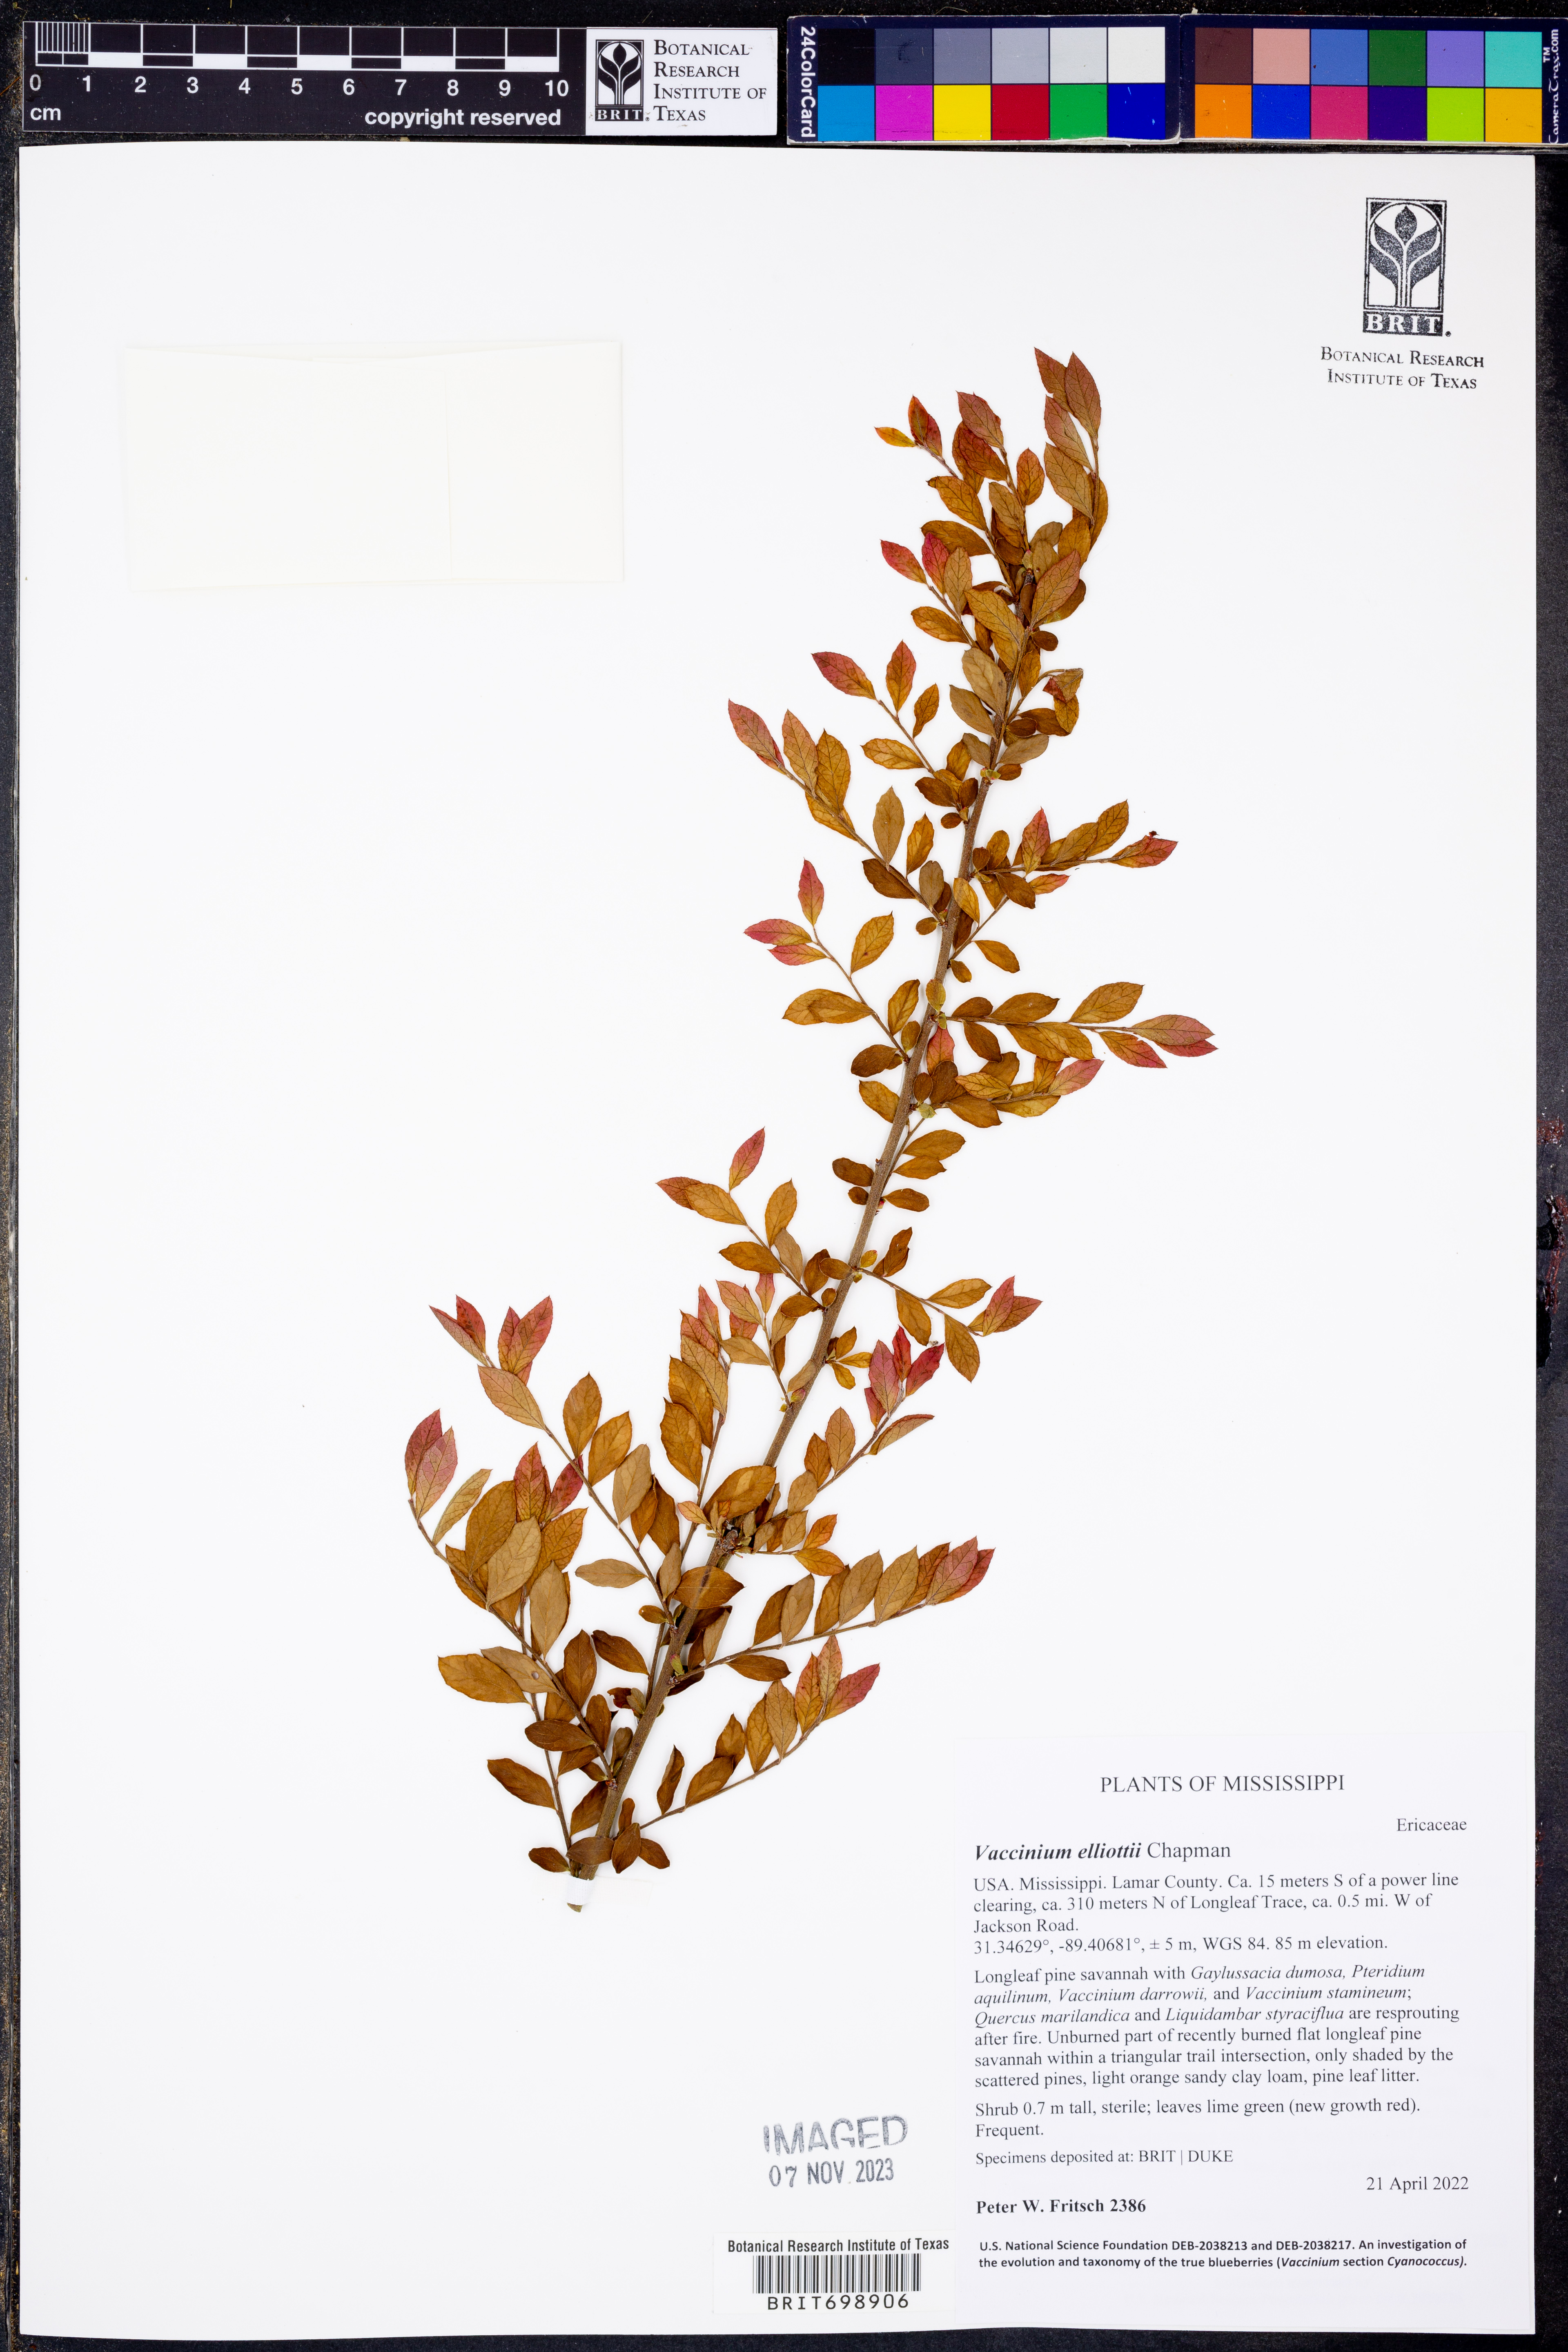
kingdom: Plantae
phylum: Tracheophyta
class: Magnoliopsida
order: Ericales
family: Ericaceae
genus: Vaccinium
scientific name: Vaccinium corymbosum
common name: Blueberry
